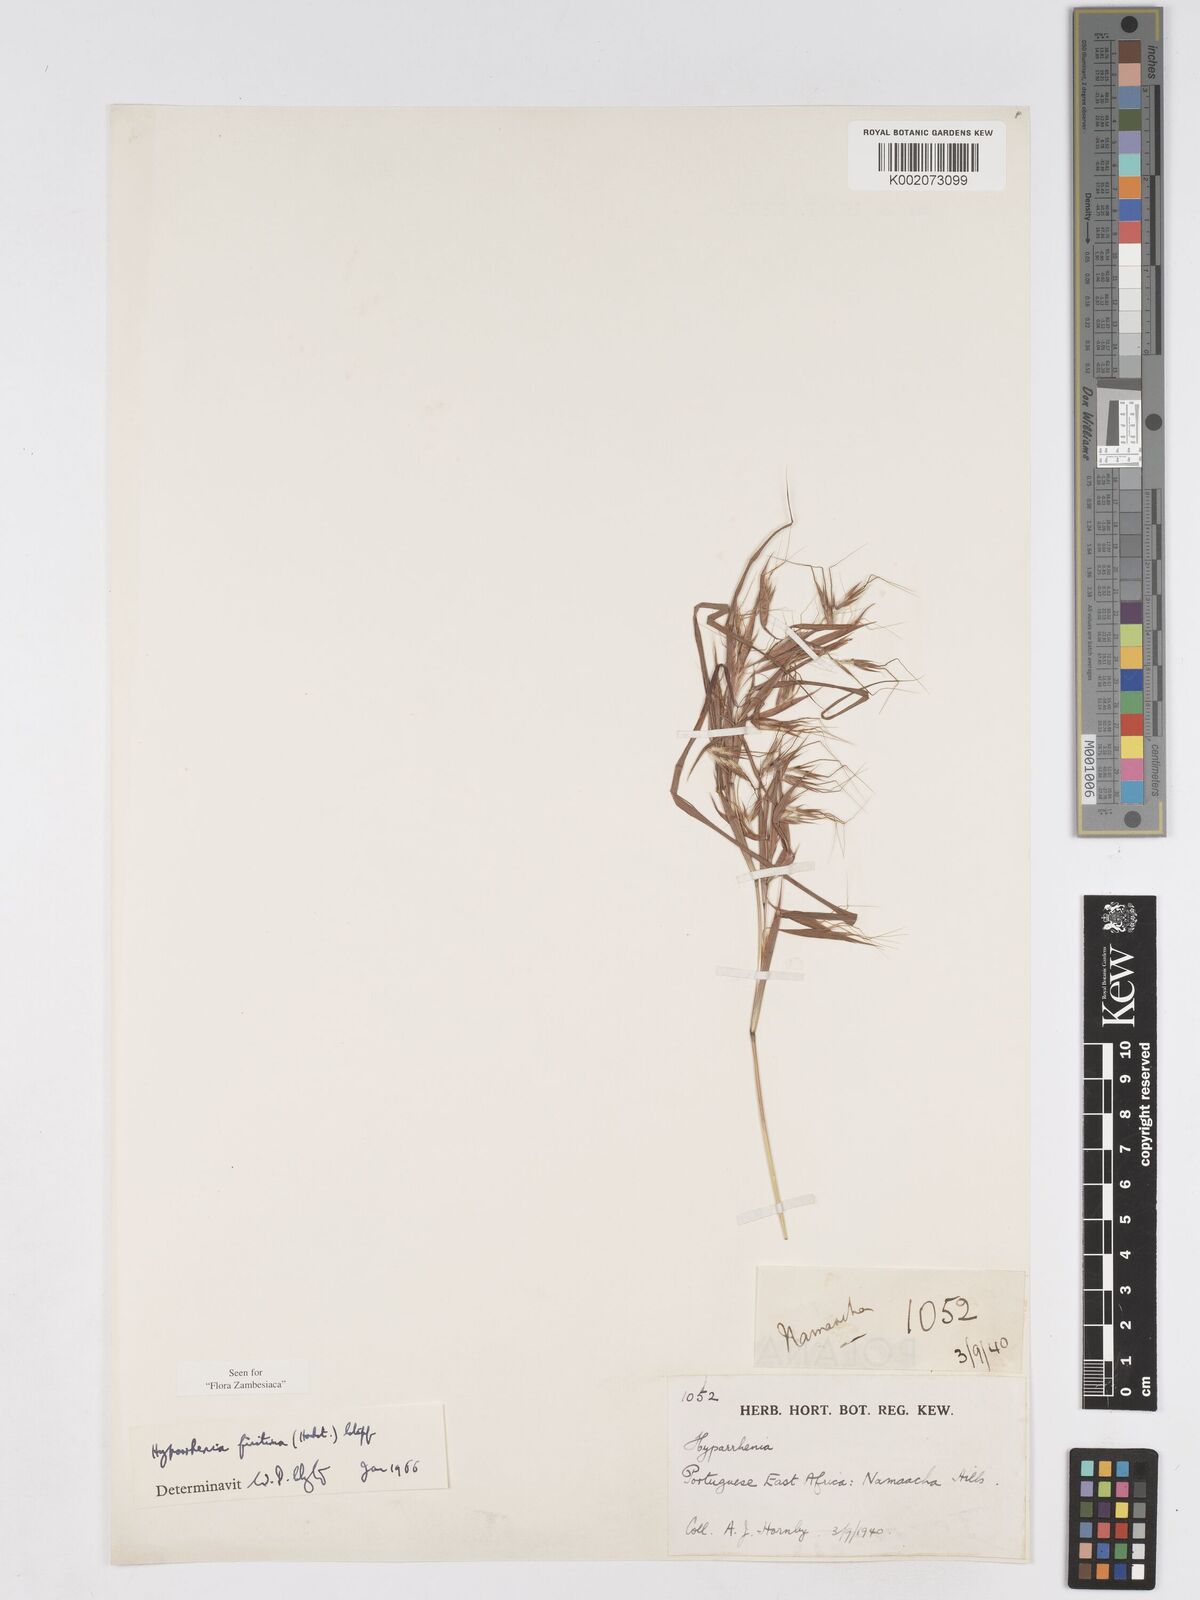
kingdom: Plantae
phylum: Tracheophyta
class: Liliopsida
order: Poales
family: Poaceae
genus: Hyparrhenia
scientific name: Hyparrhenia finitima
